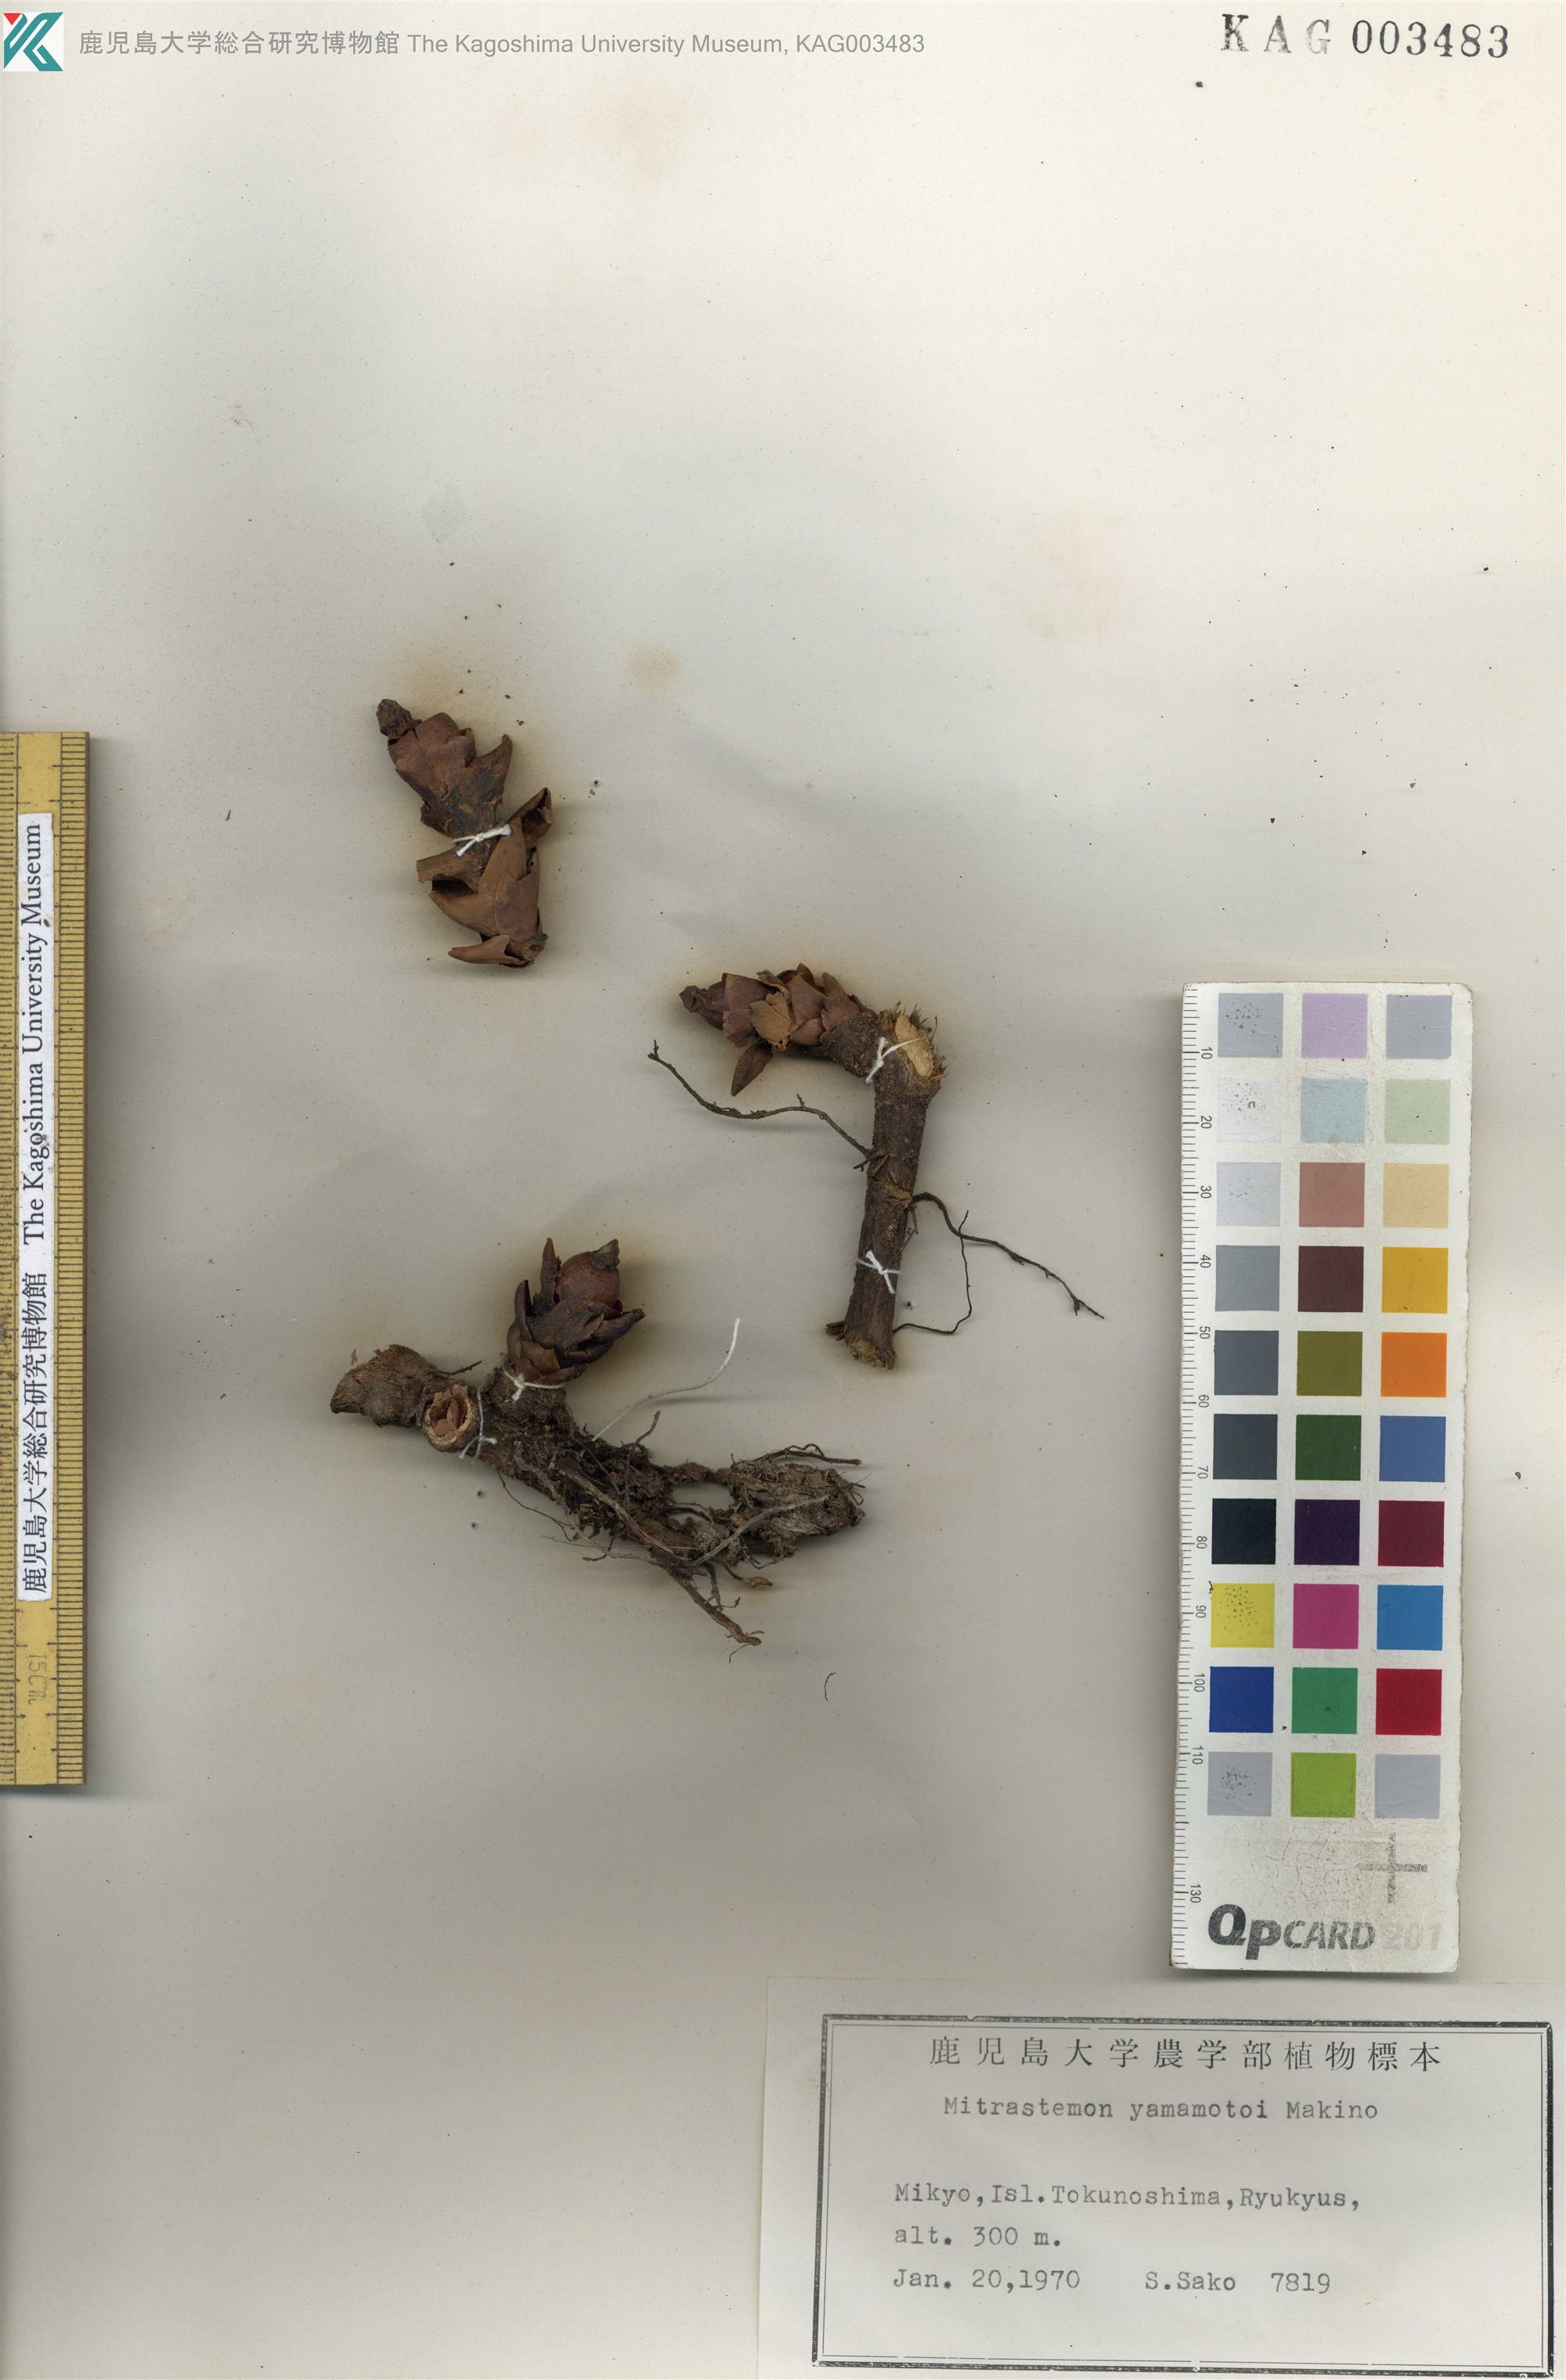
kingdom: Plantae
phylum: Tracheophyta
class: Magnoliopsida
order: Ericales
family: Mitrastemonaceae
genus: Mitrastemon
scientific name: Mitrastemon yamamotoi
